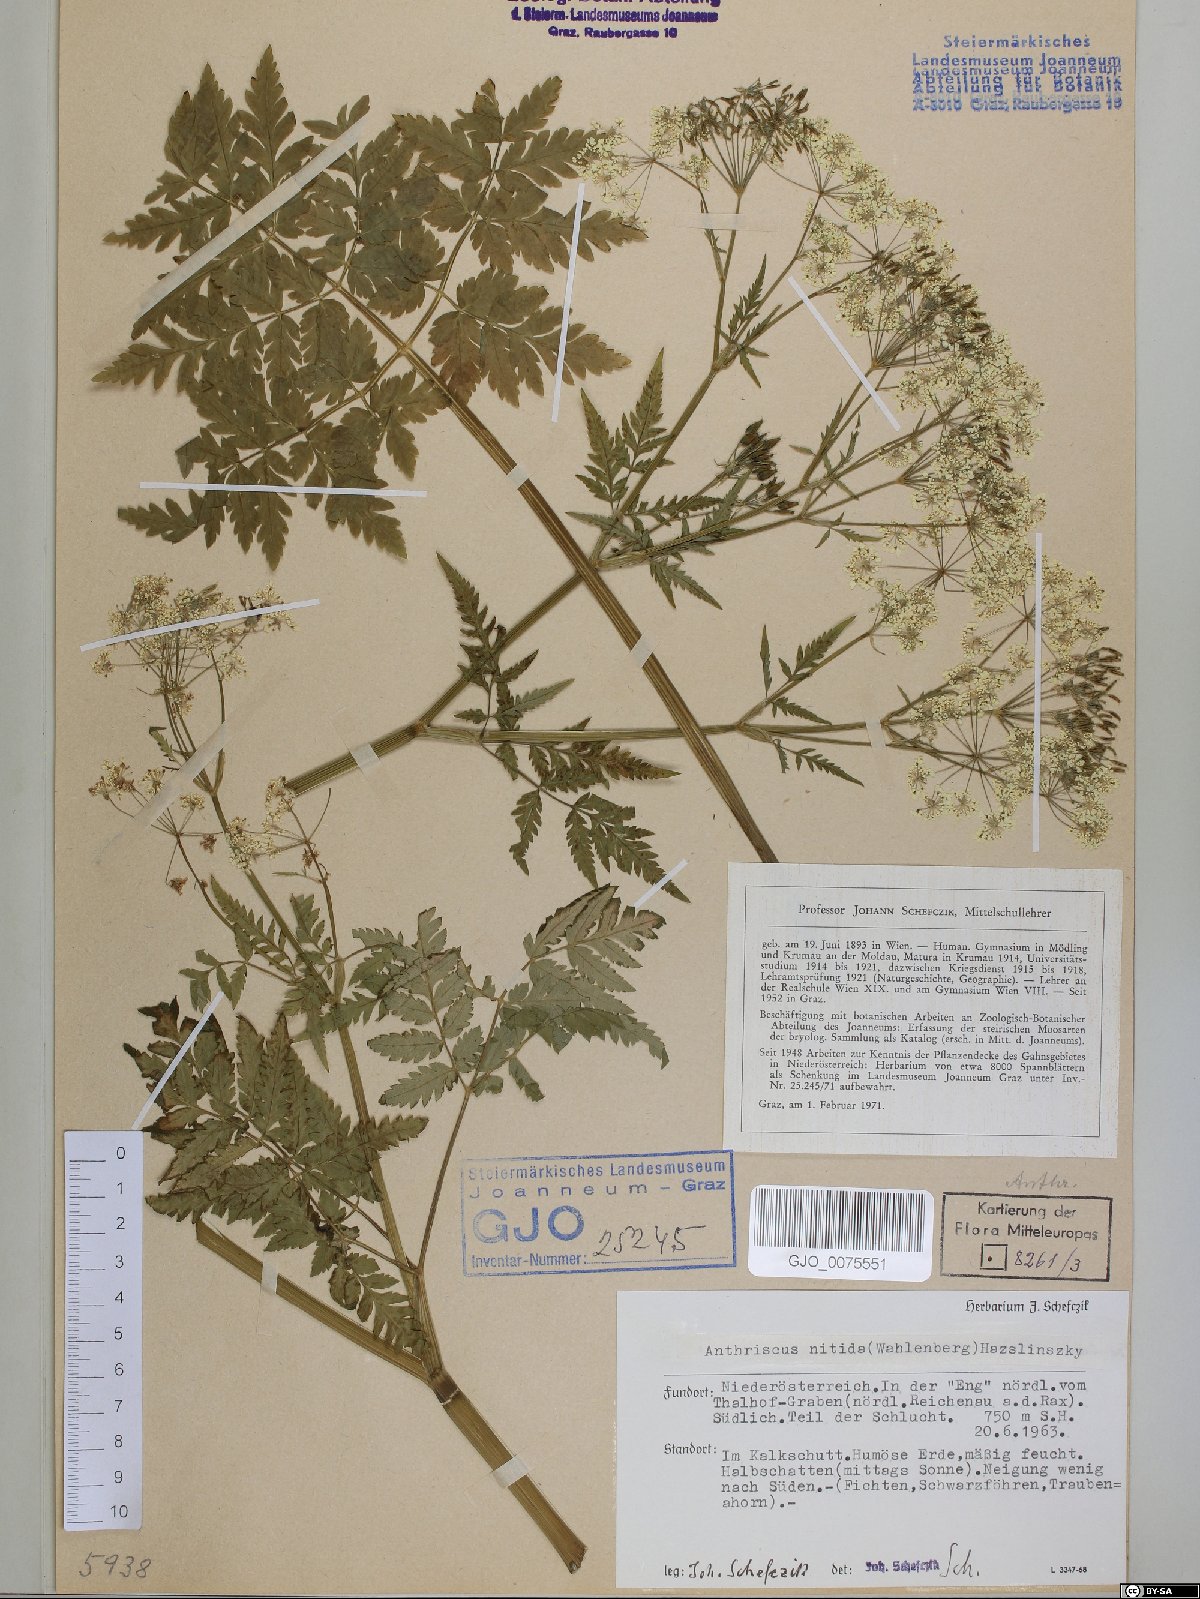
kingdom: Plantae
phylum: Tracheophyta
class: Magnoliopsida
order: Apiales
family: Apiaceae
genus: Anthriscus
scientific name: Anthriscus nitida
